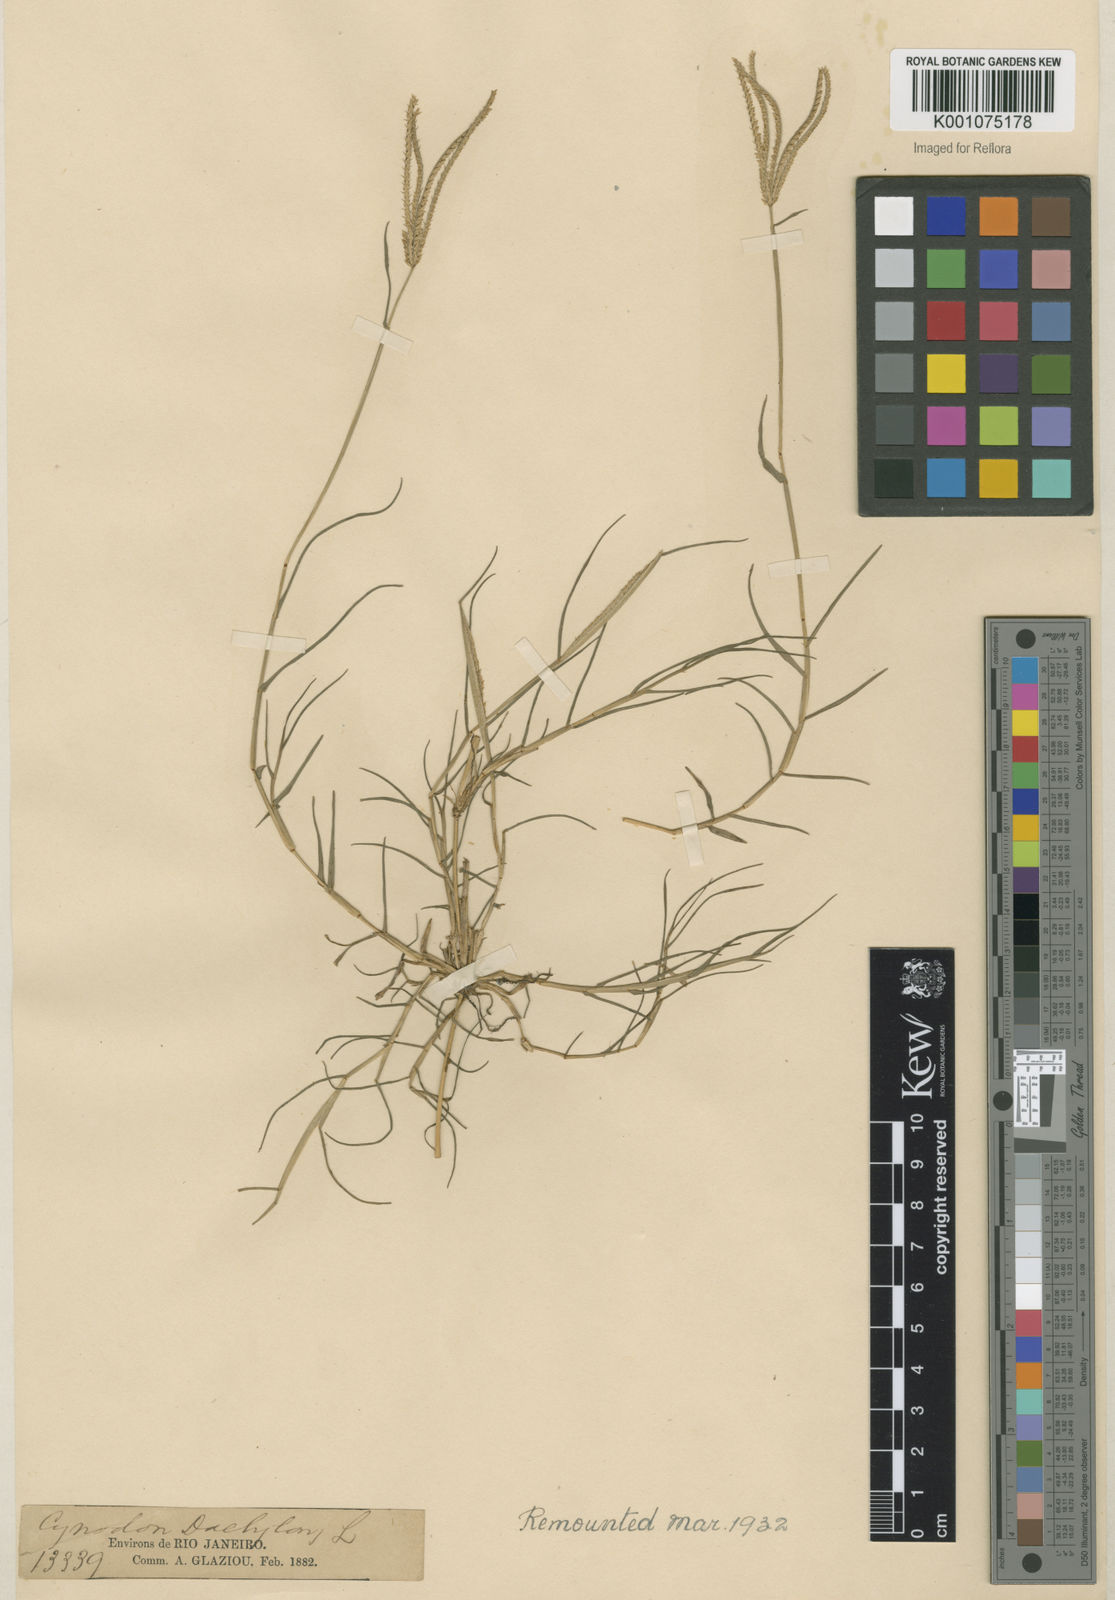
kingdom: Plantae
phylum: Tracheophyta
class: Liliopsida
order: Poales
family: Poaceae
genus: Cynodon
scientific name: Cynodon dactylon
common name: Bermuda grass
